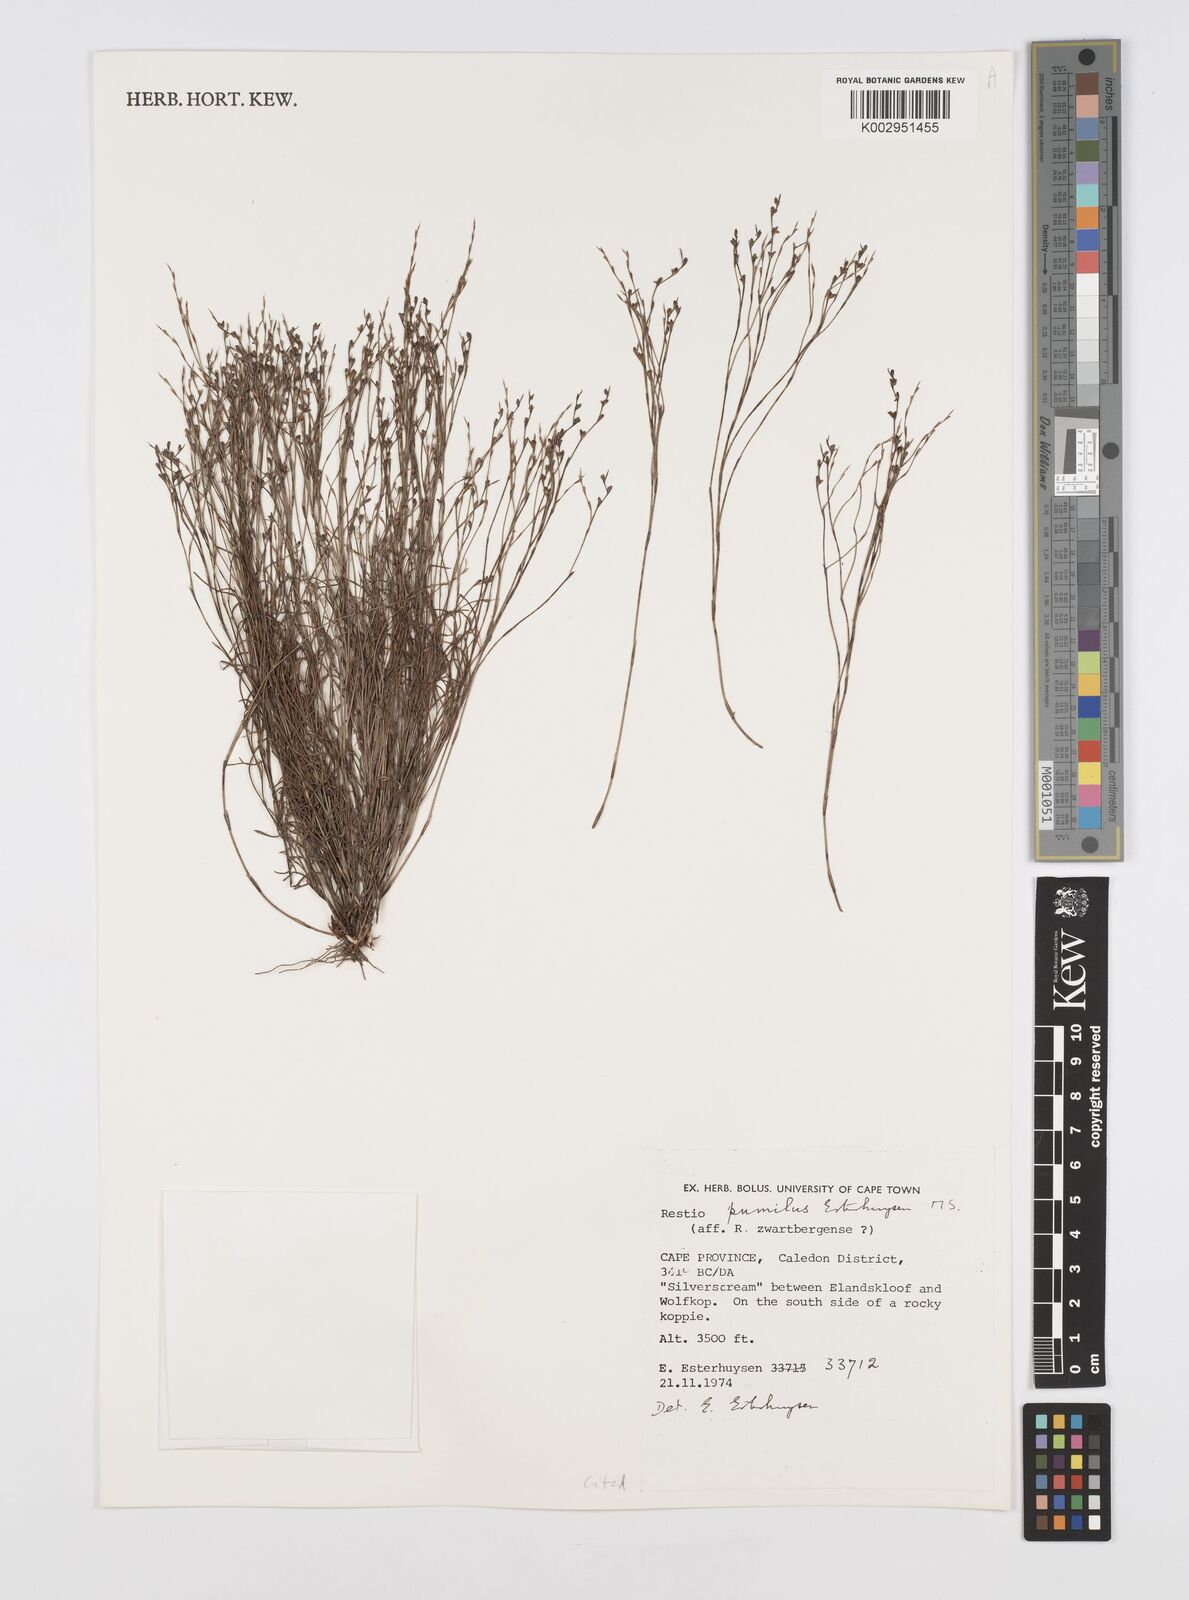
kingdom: Plantae
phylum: Tracheophyta
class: Liliopsida
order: Poales
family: Restionaceae
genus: Restio
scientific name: Restio pumilus
